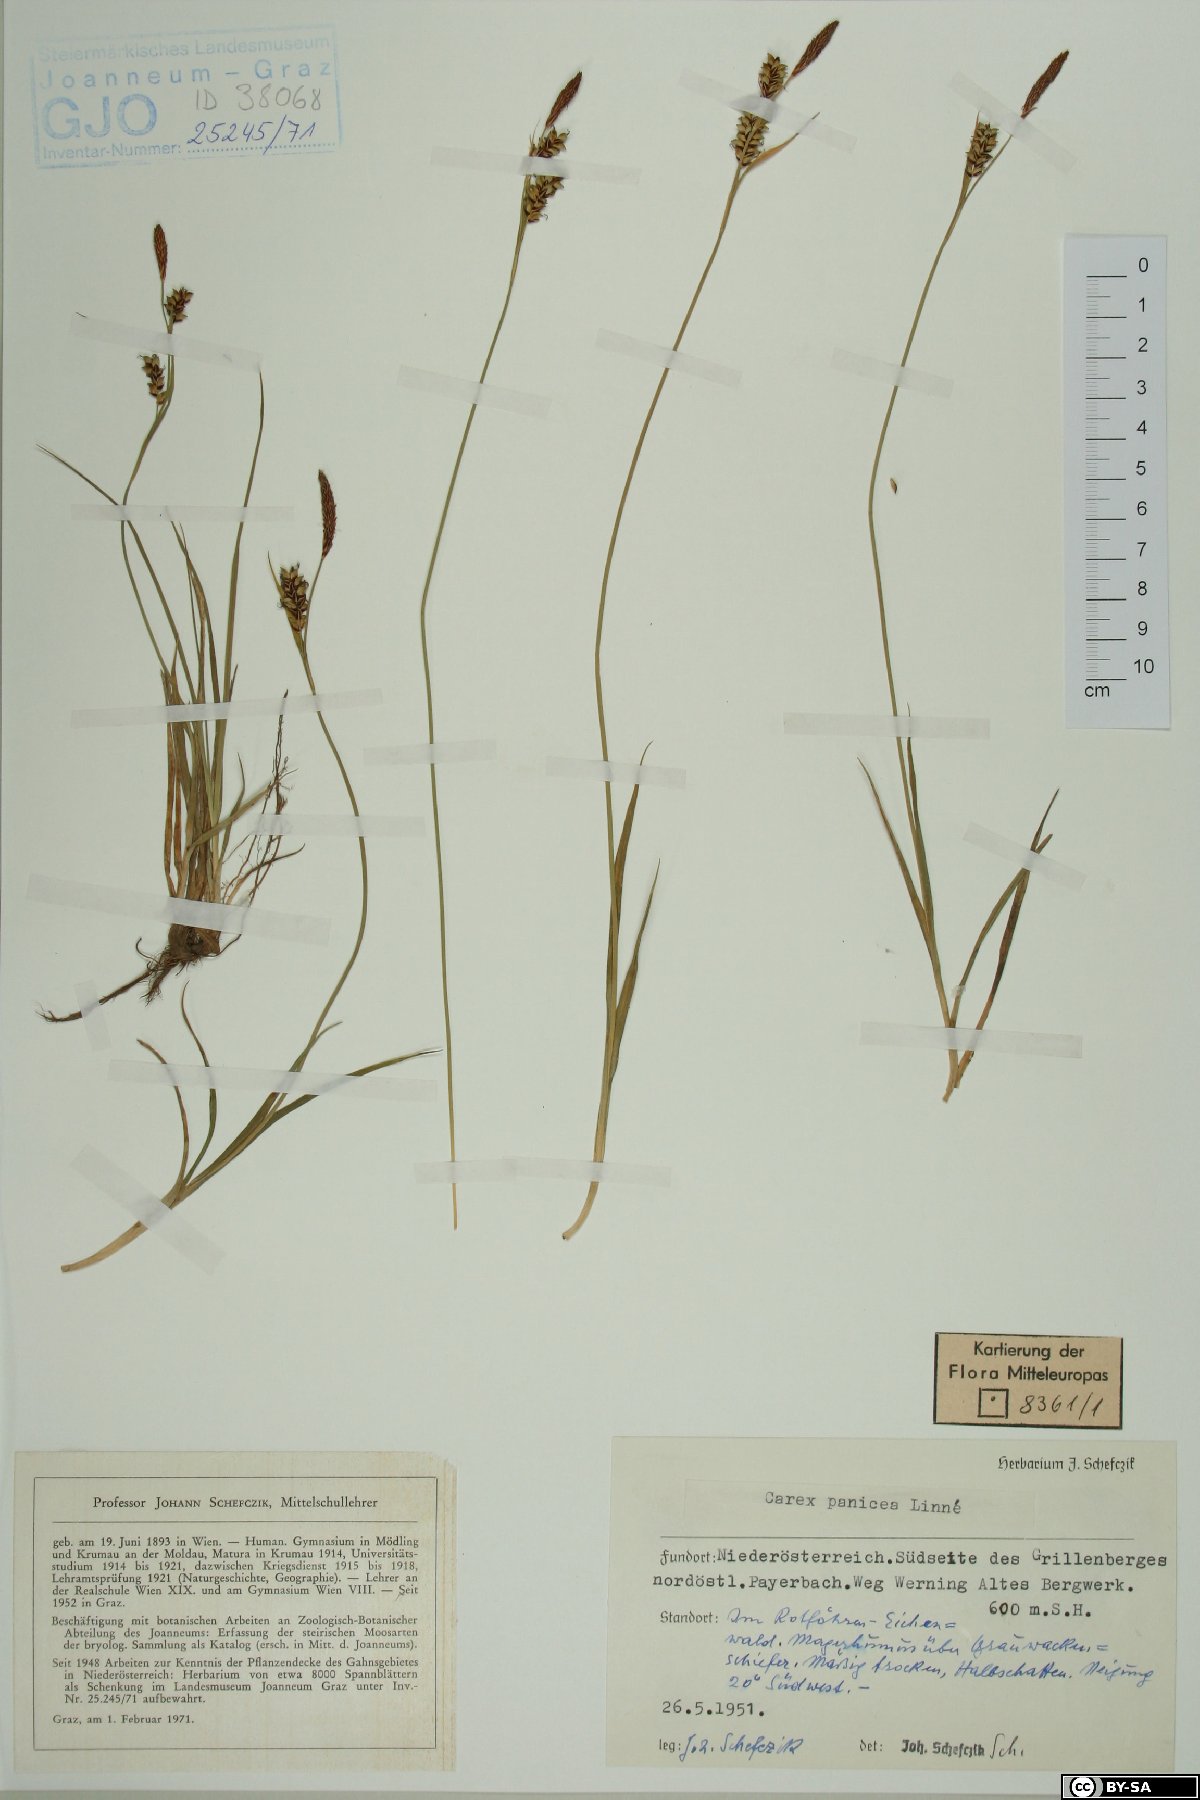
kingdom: Plantae
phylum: Tracheophyta
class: Liliopsida
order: Poales
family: Cyperaceae
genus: Carex
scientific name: Carex panicea
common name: Carnation sedge
